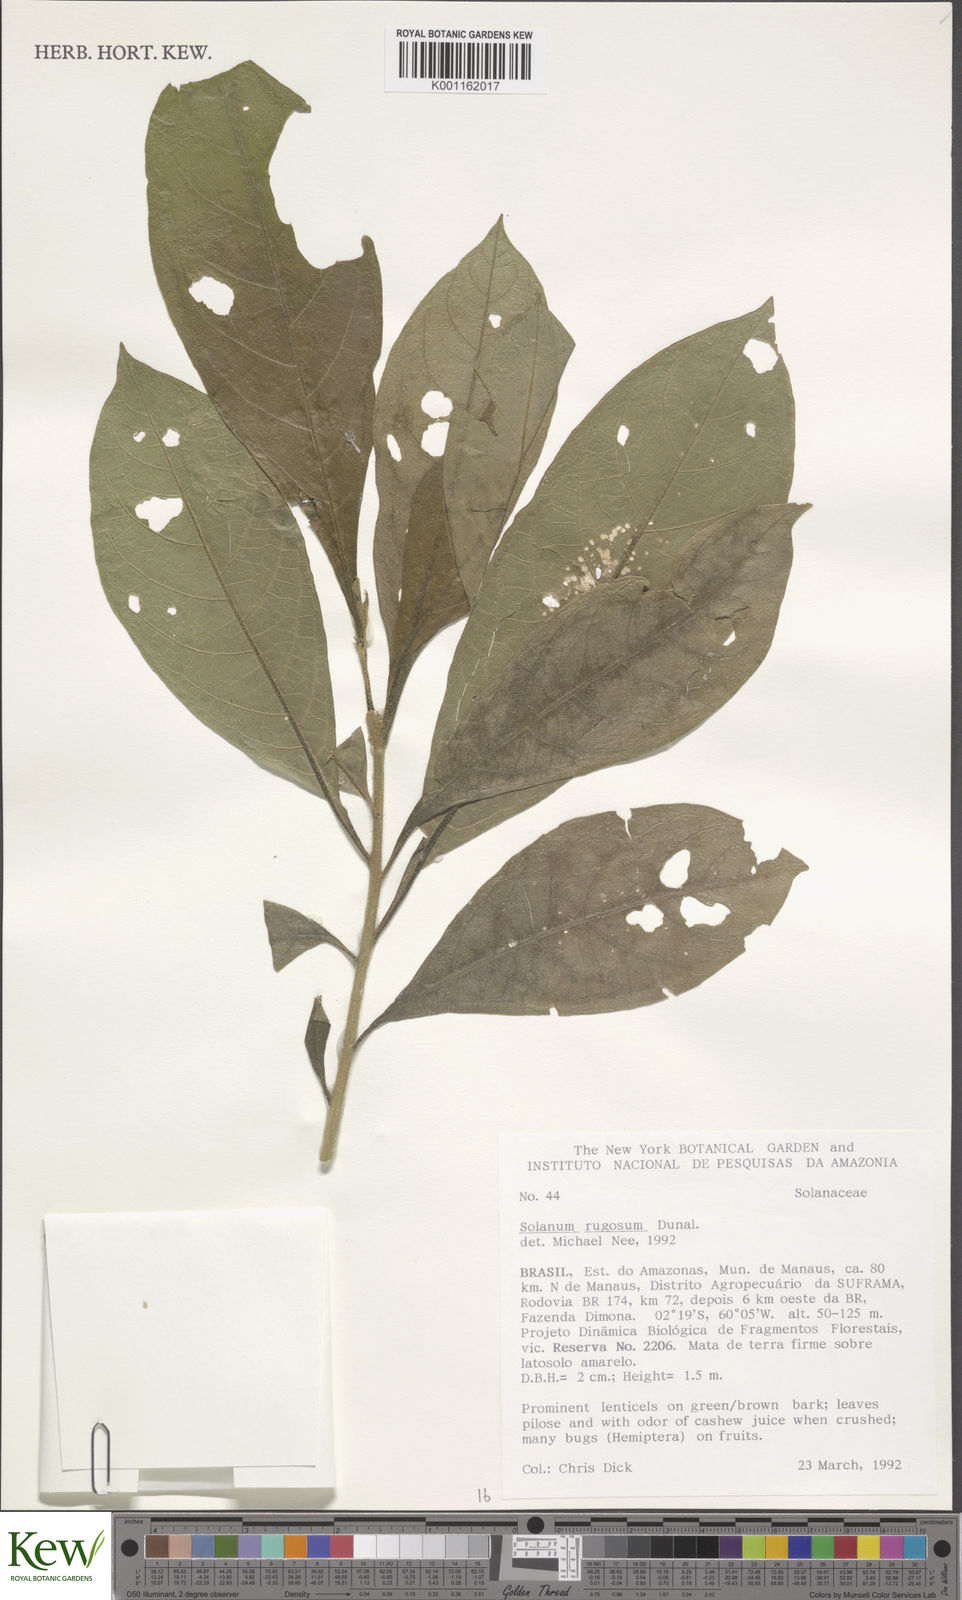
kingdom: Plantae
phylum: Tracheophyta
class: Magnoliopsida
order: Solanales
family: Solanaceae
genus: Solanum
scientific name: Solanum rugosum
